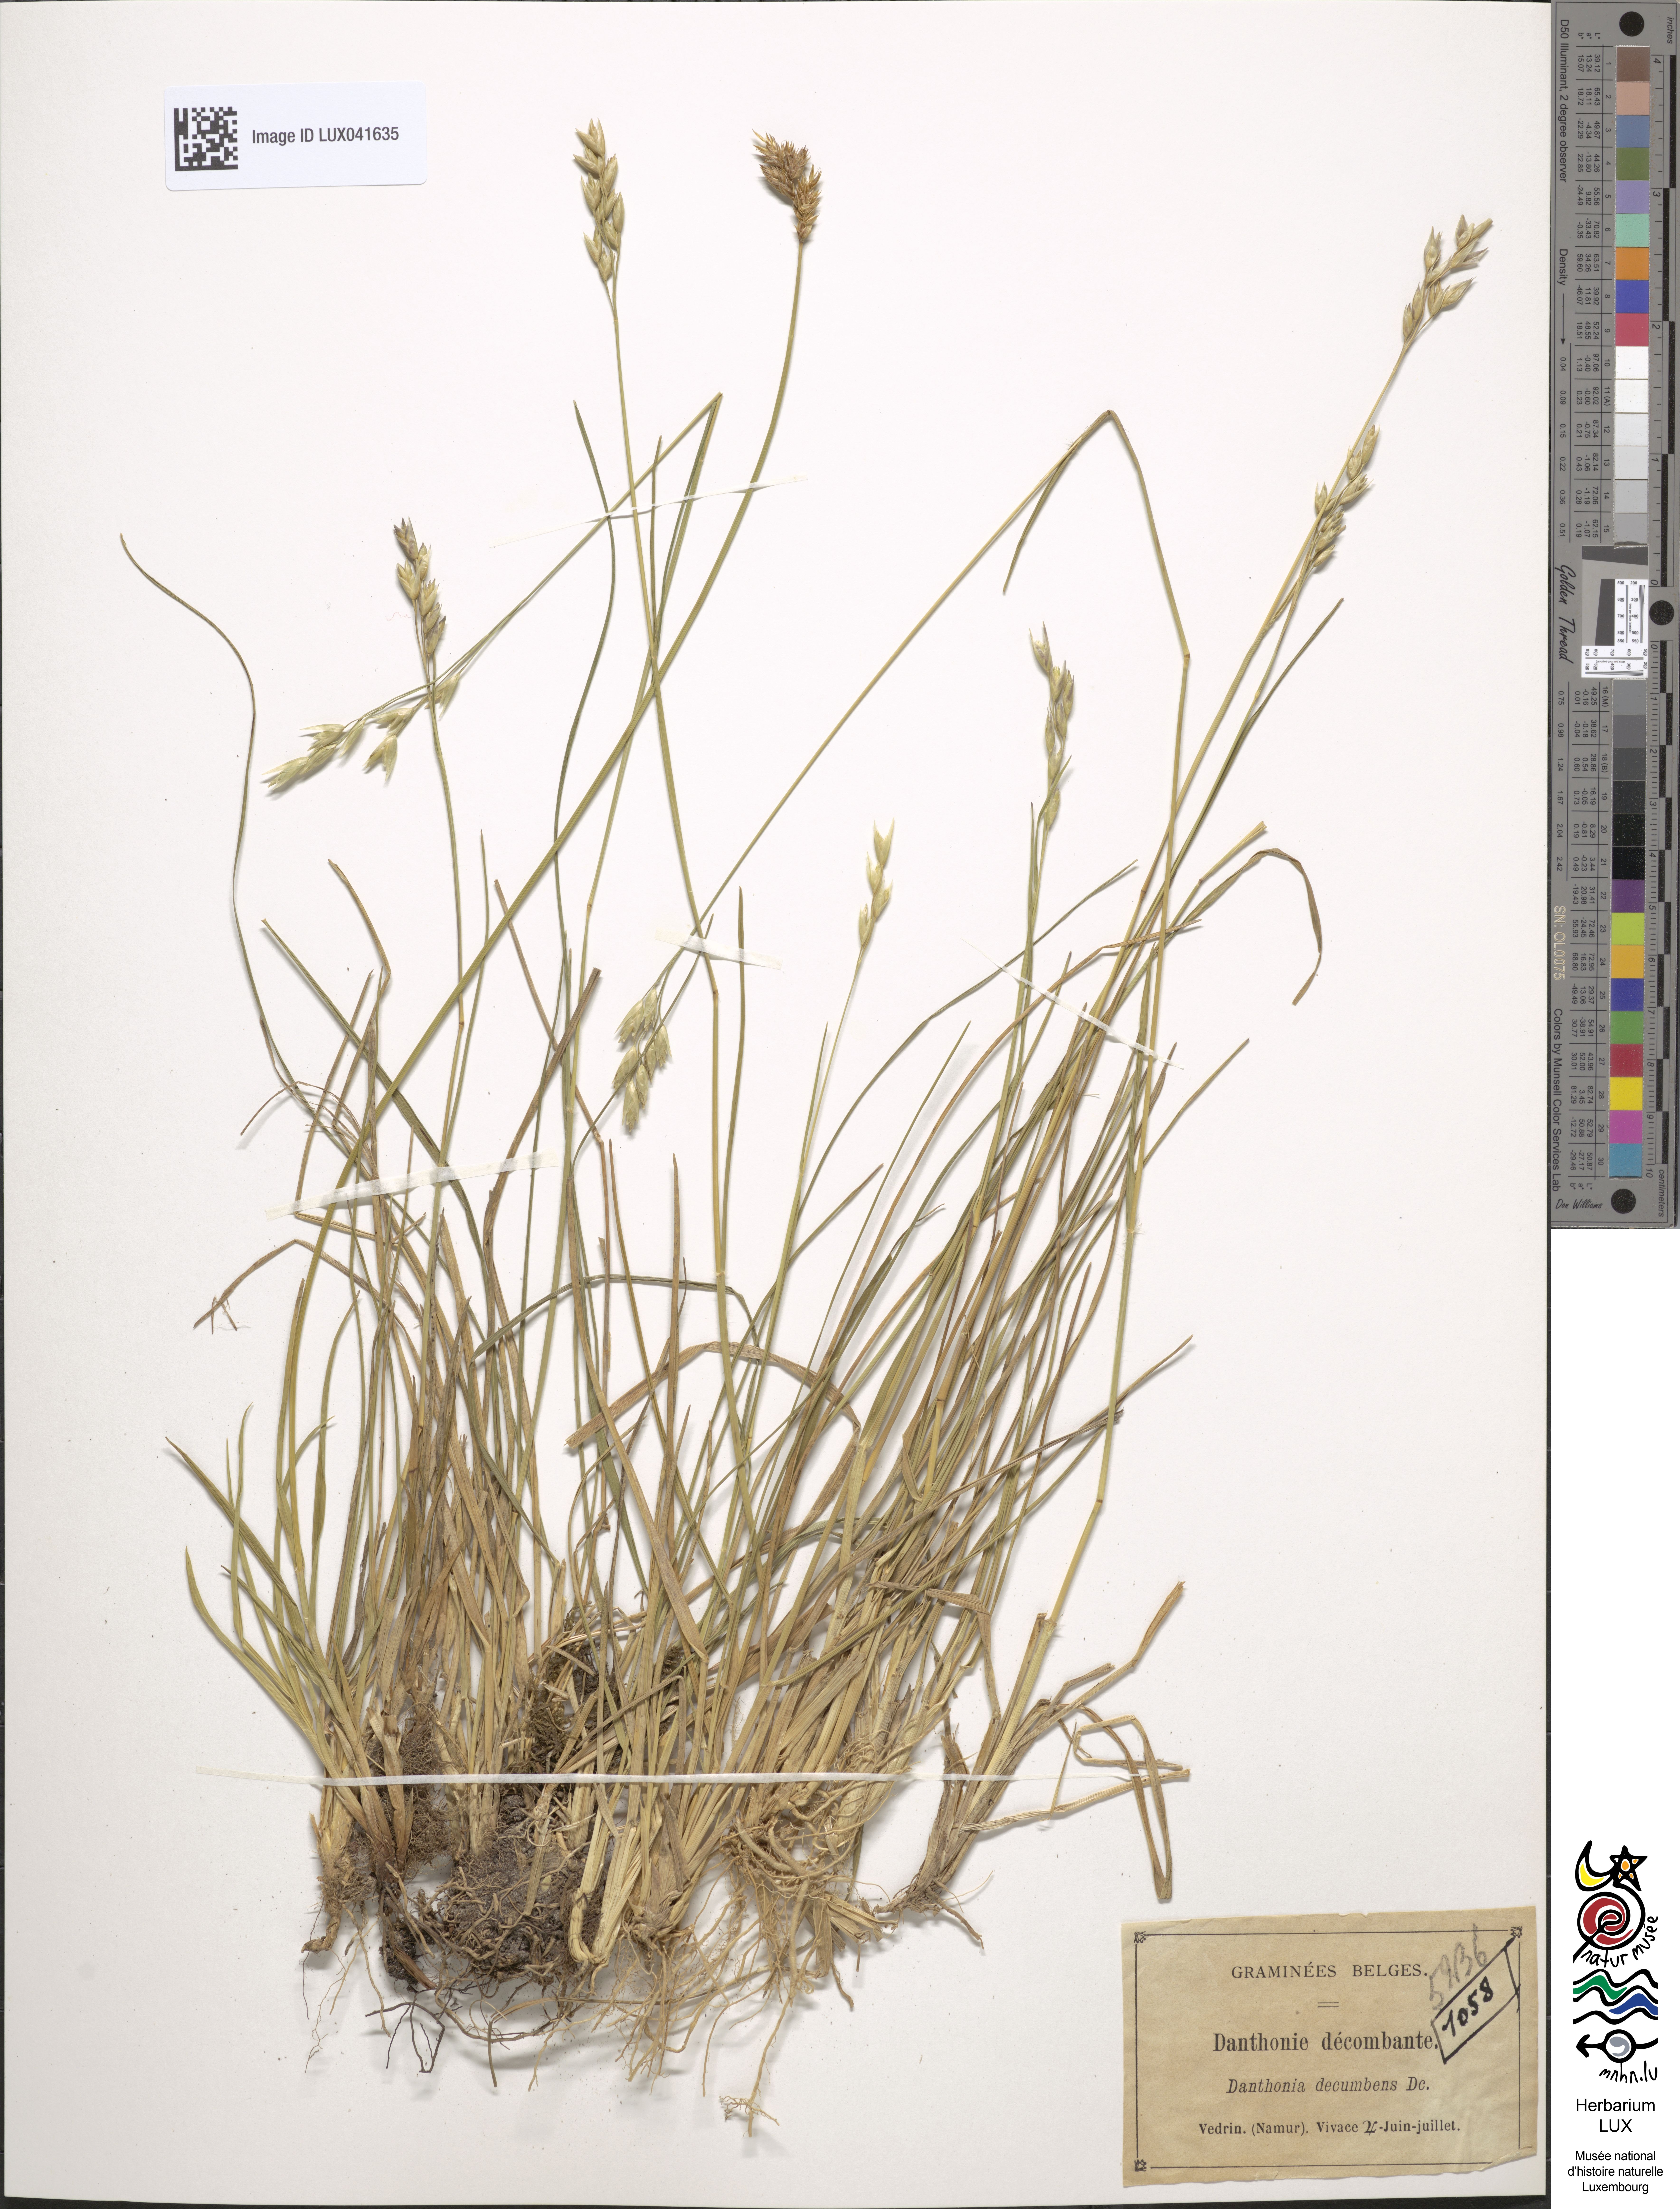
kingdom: Plantae
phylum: Tracheophyta
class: Liliopsida
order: Poales
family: Poaceae
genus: Danthonia
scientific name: Danthonia decumbens
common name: Common heathgrass
